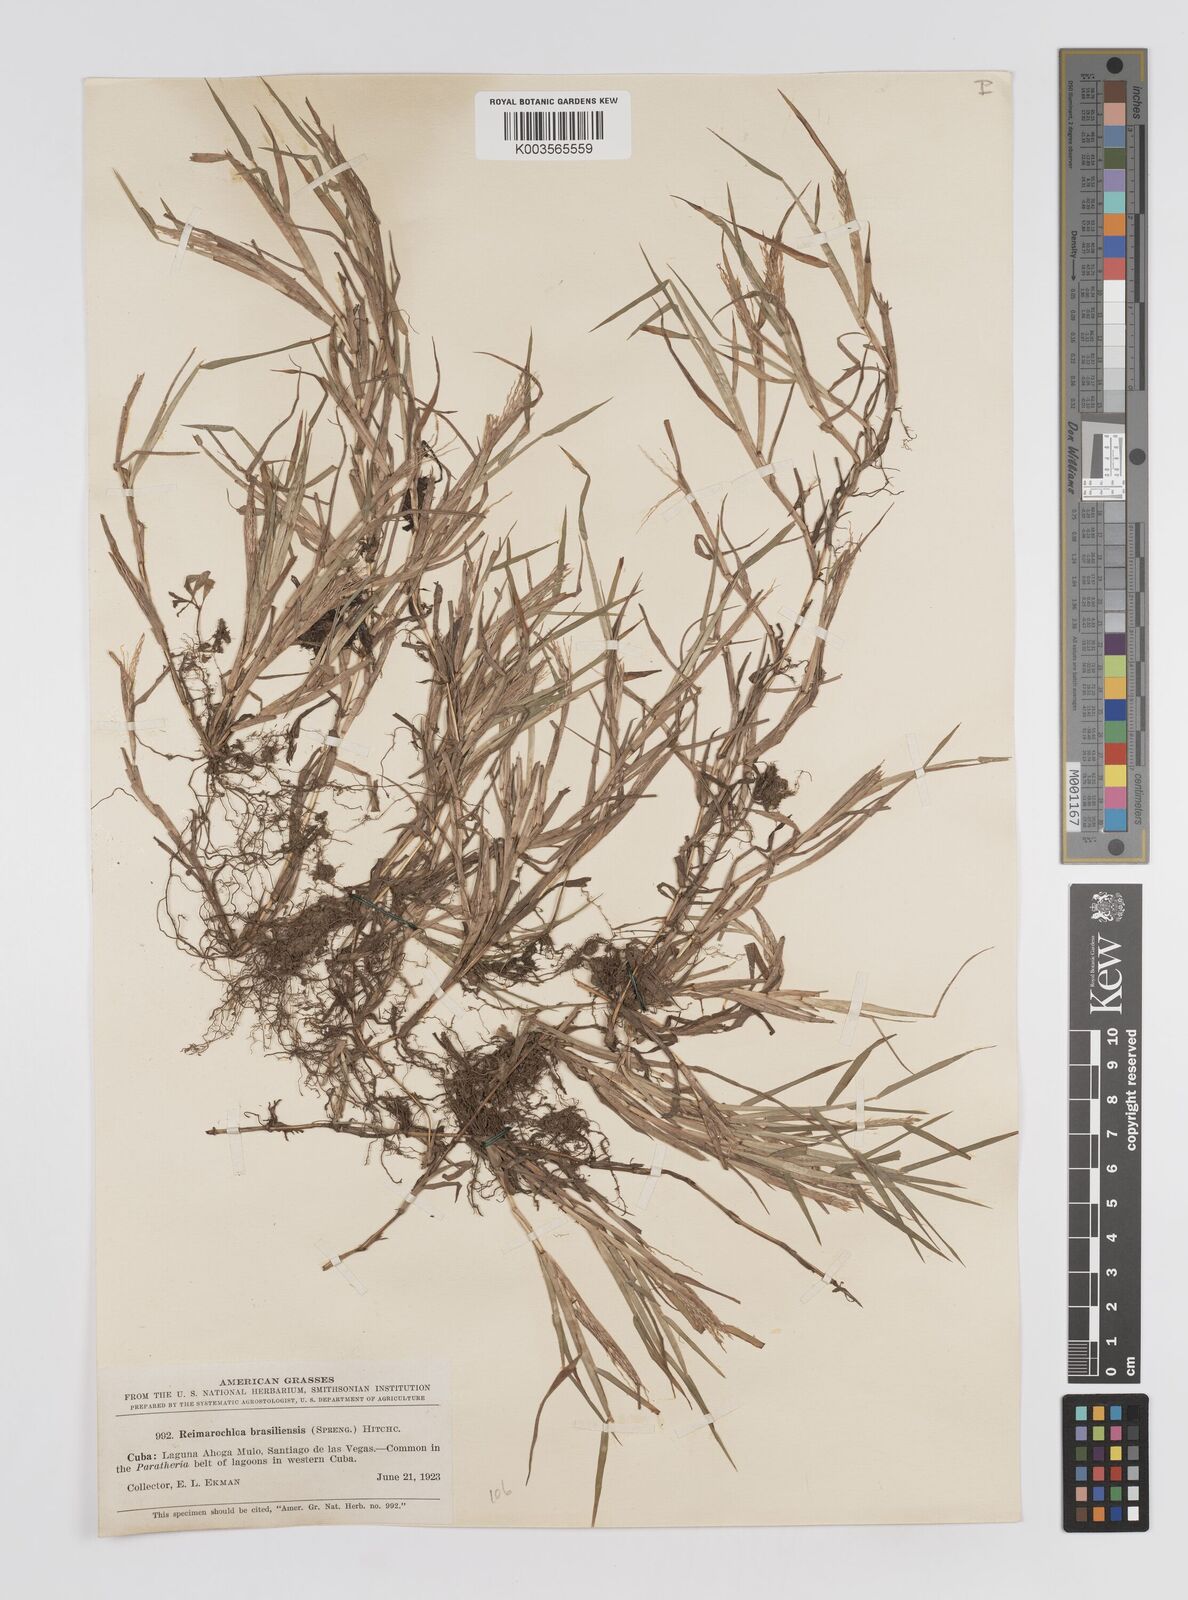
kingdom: Plantae
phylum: Tracheophyta
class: Liliopsida
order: Poales
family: Poaceae
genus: Paspalum
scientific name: Paspalum stagnophilum
